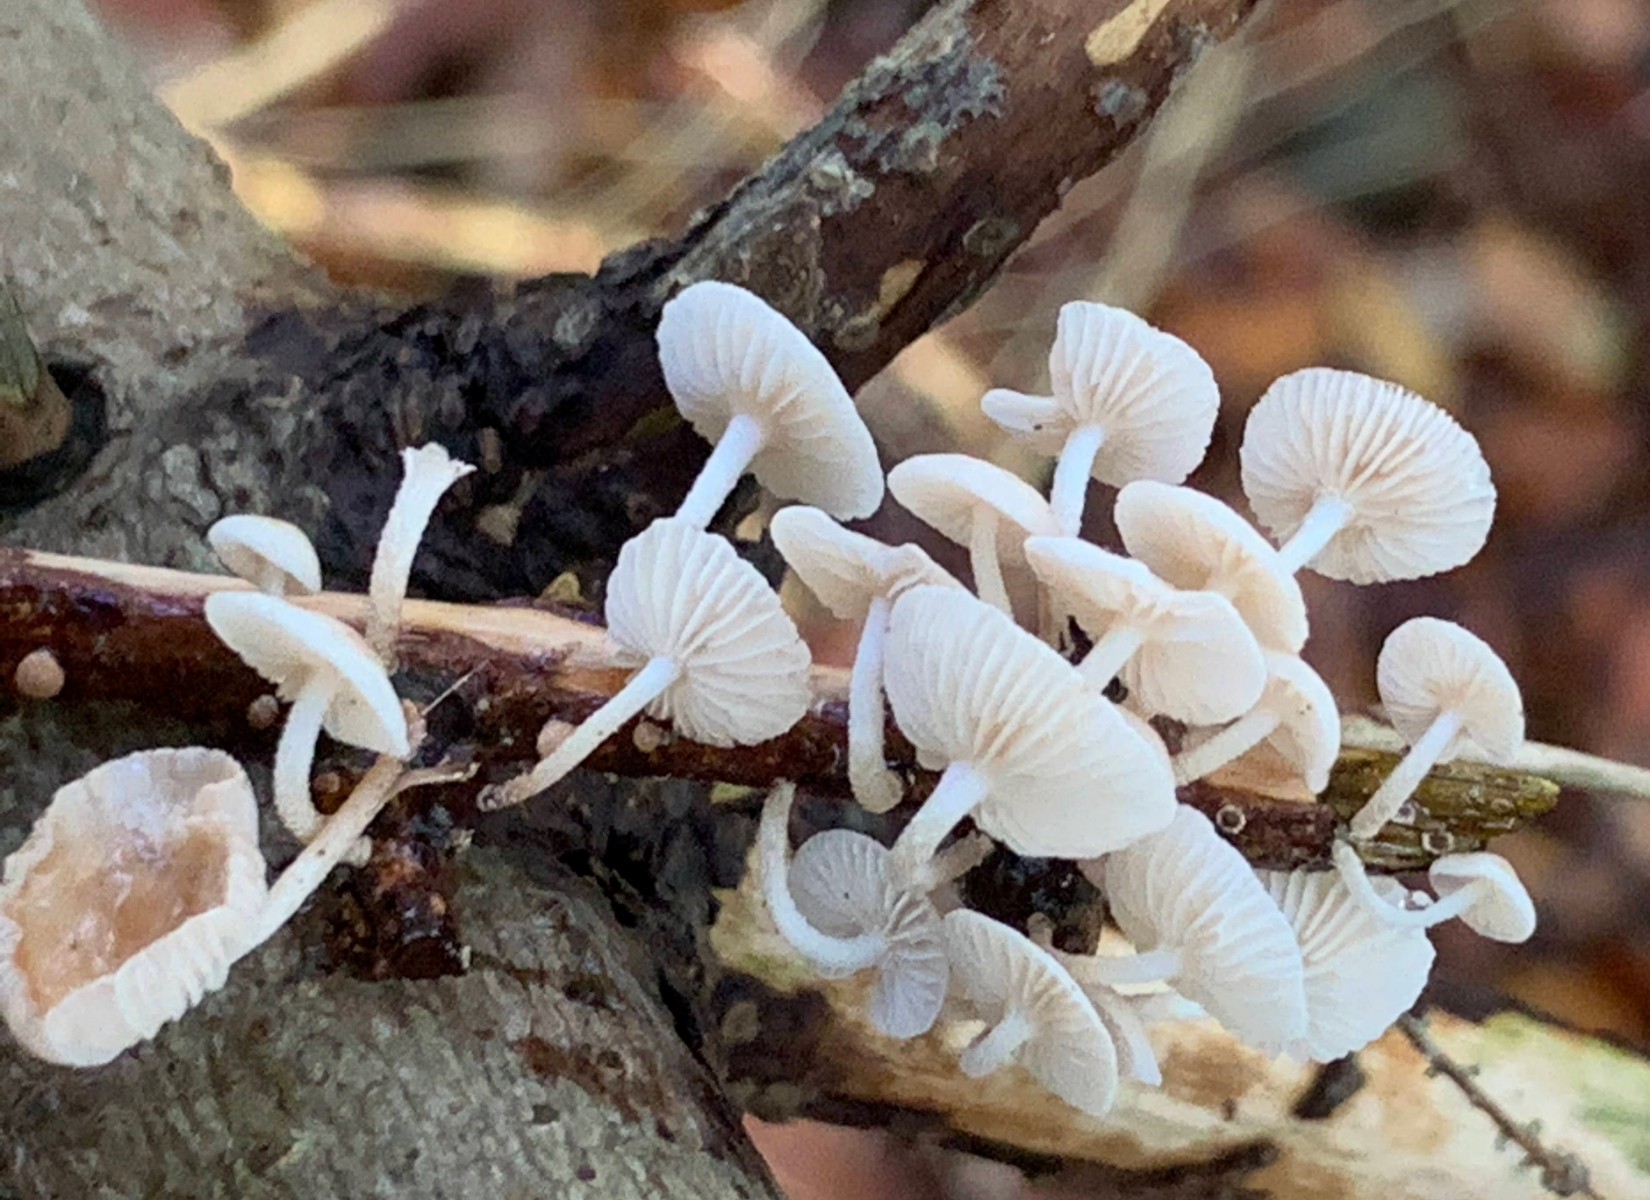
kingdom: Fungi
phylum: Basidiomycota
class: Agaricomycetes
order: Agaricales
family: Omphalotaceae
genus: Collybiopsis
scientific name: Collybiopsis ramealis
